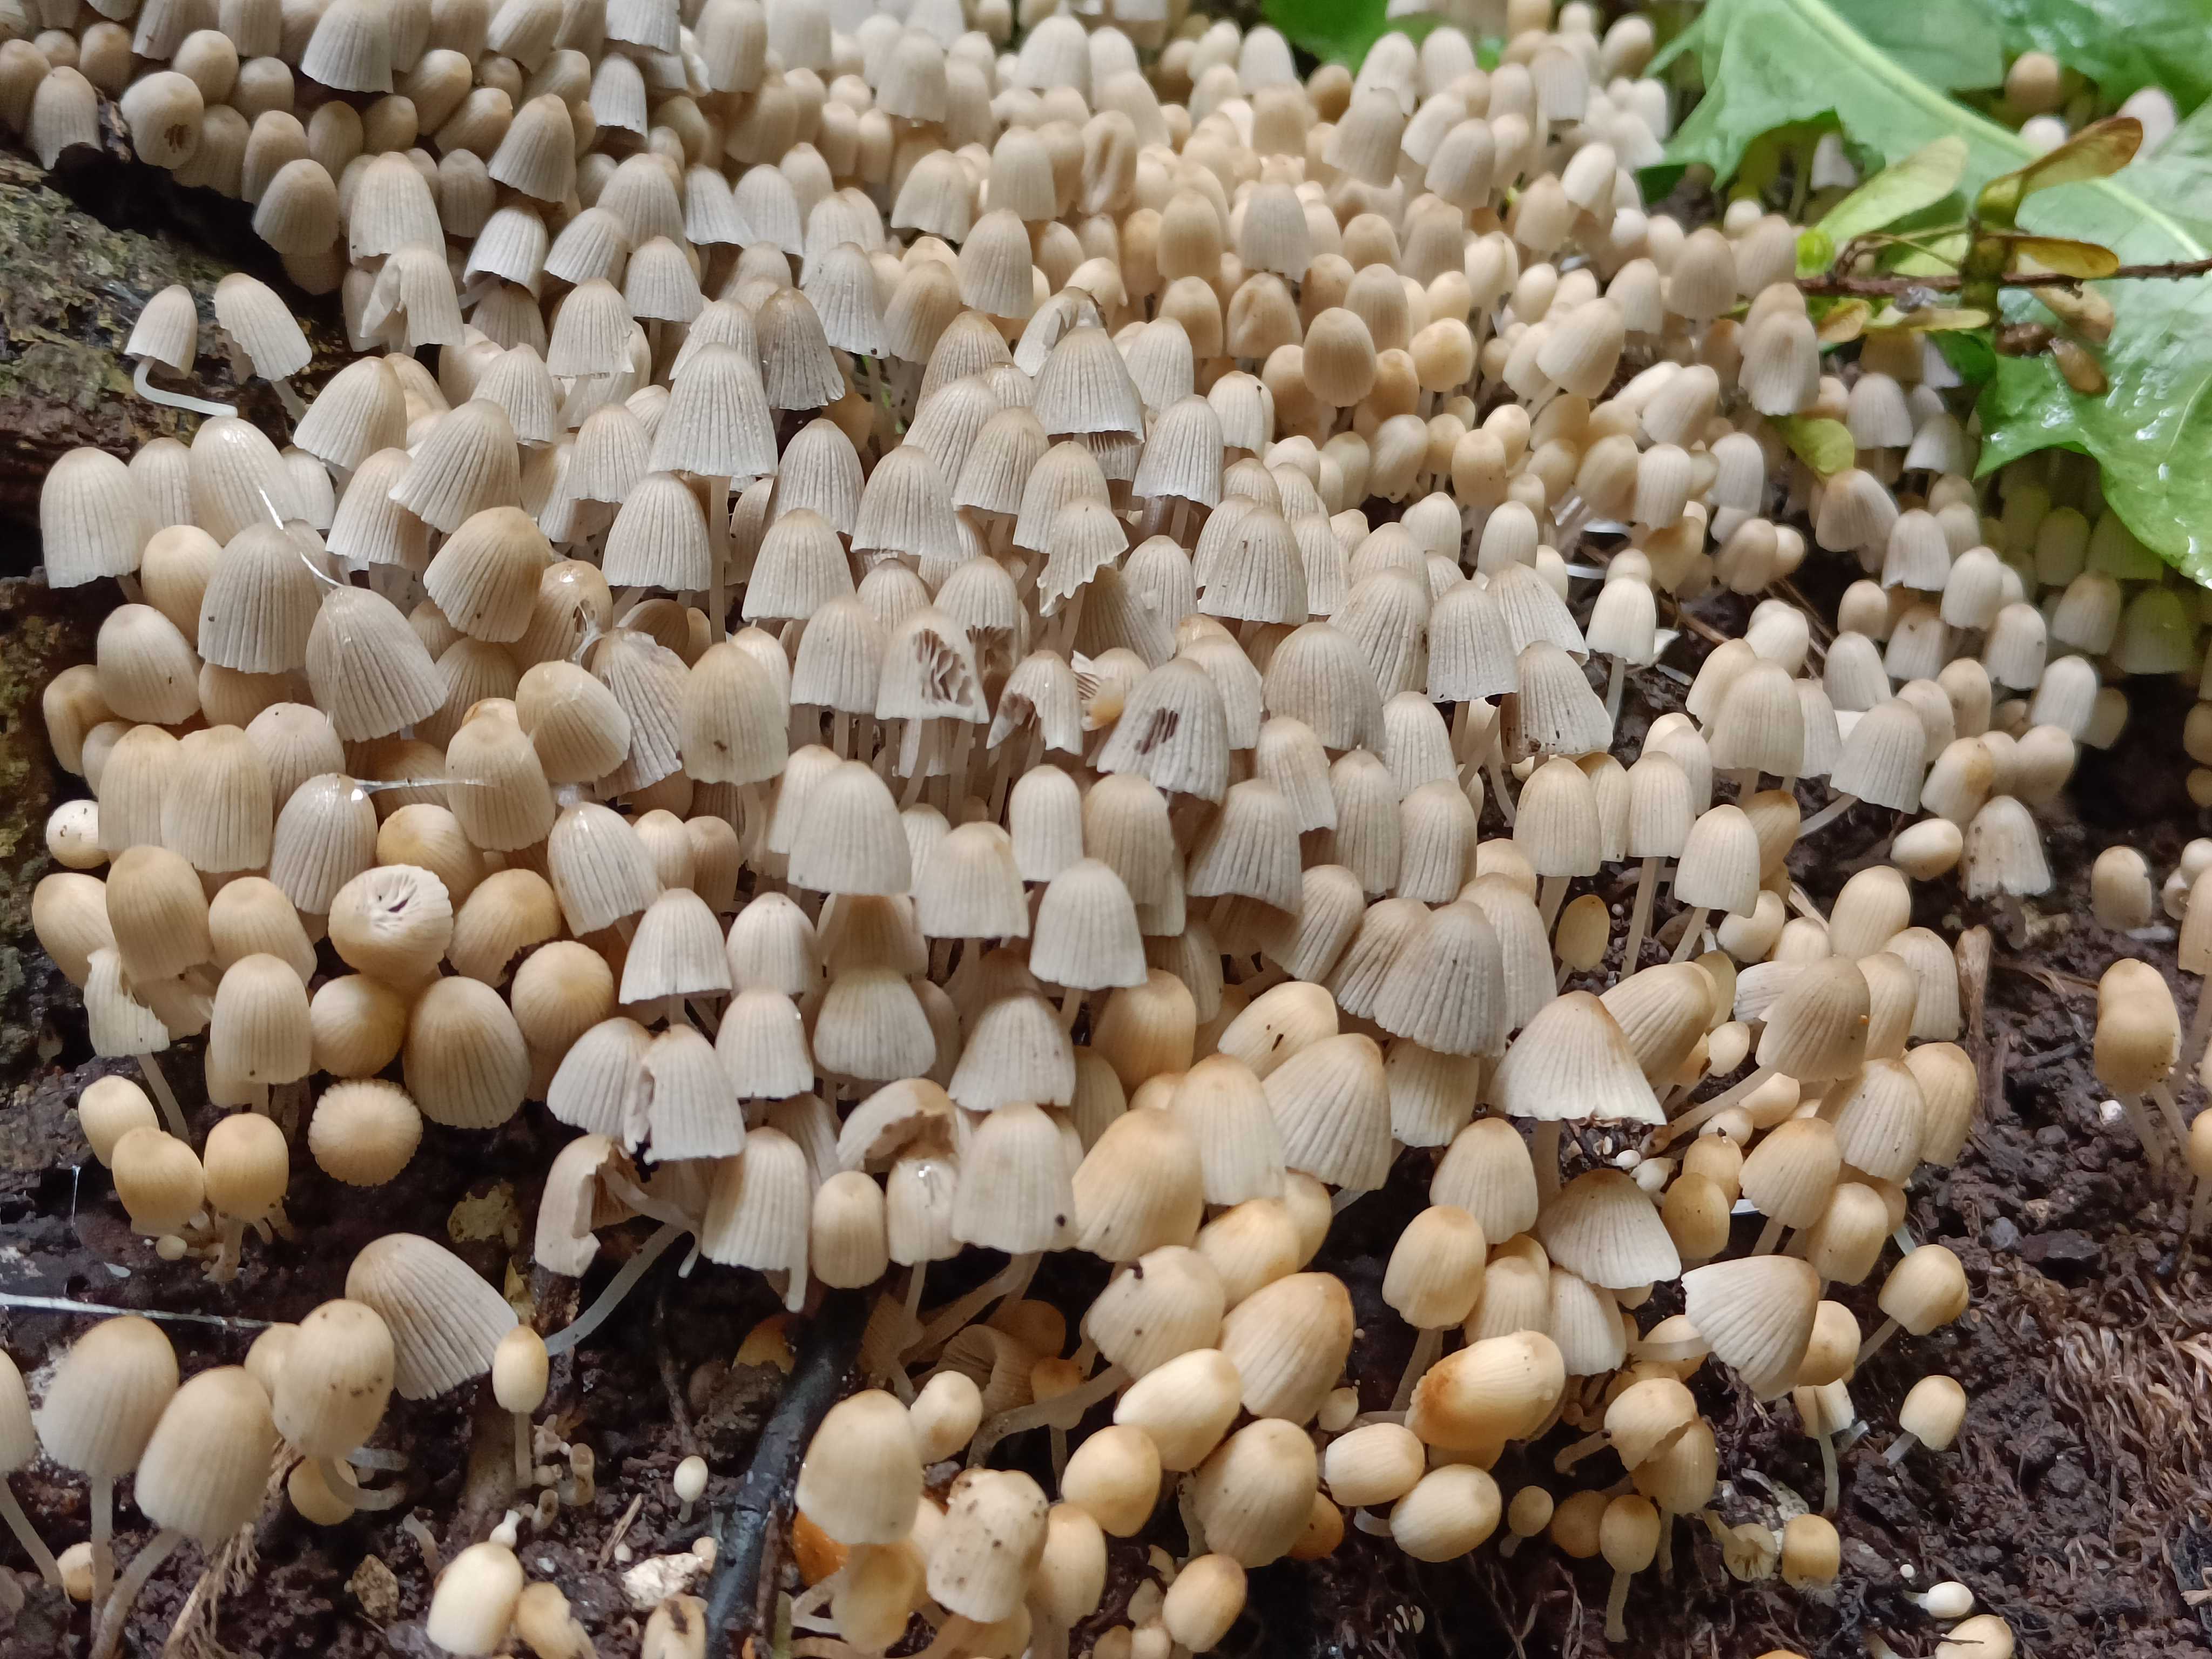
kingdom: Fungi
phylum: Basidiomycota
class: Agaricomycetes
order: Agaricales
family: Psathyrellaceae
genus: Coprinellus
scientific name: Coprinellus disseminatus
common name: bredsået blækhat
